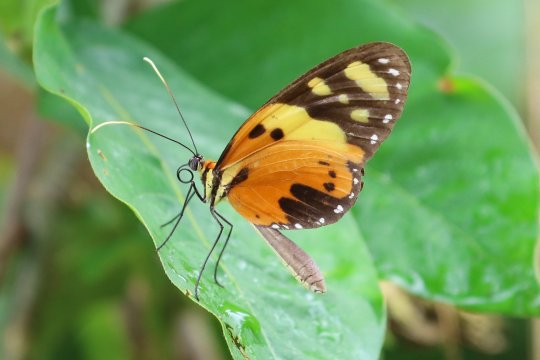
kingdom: Animalia
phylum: Arthropoda
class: Insecta
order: Lepidoptera
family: Nymphalidae
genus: Melinaea
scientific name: Melinaea ludovica
